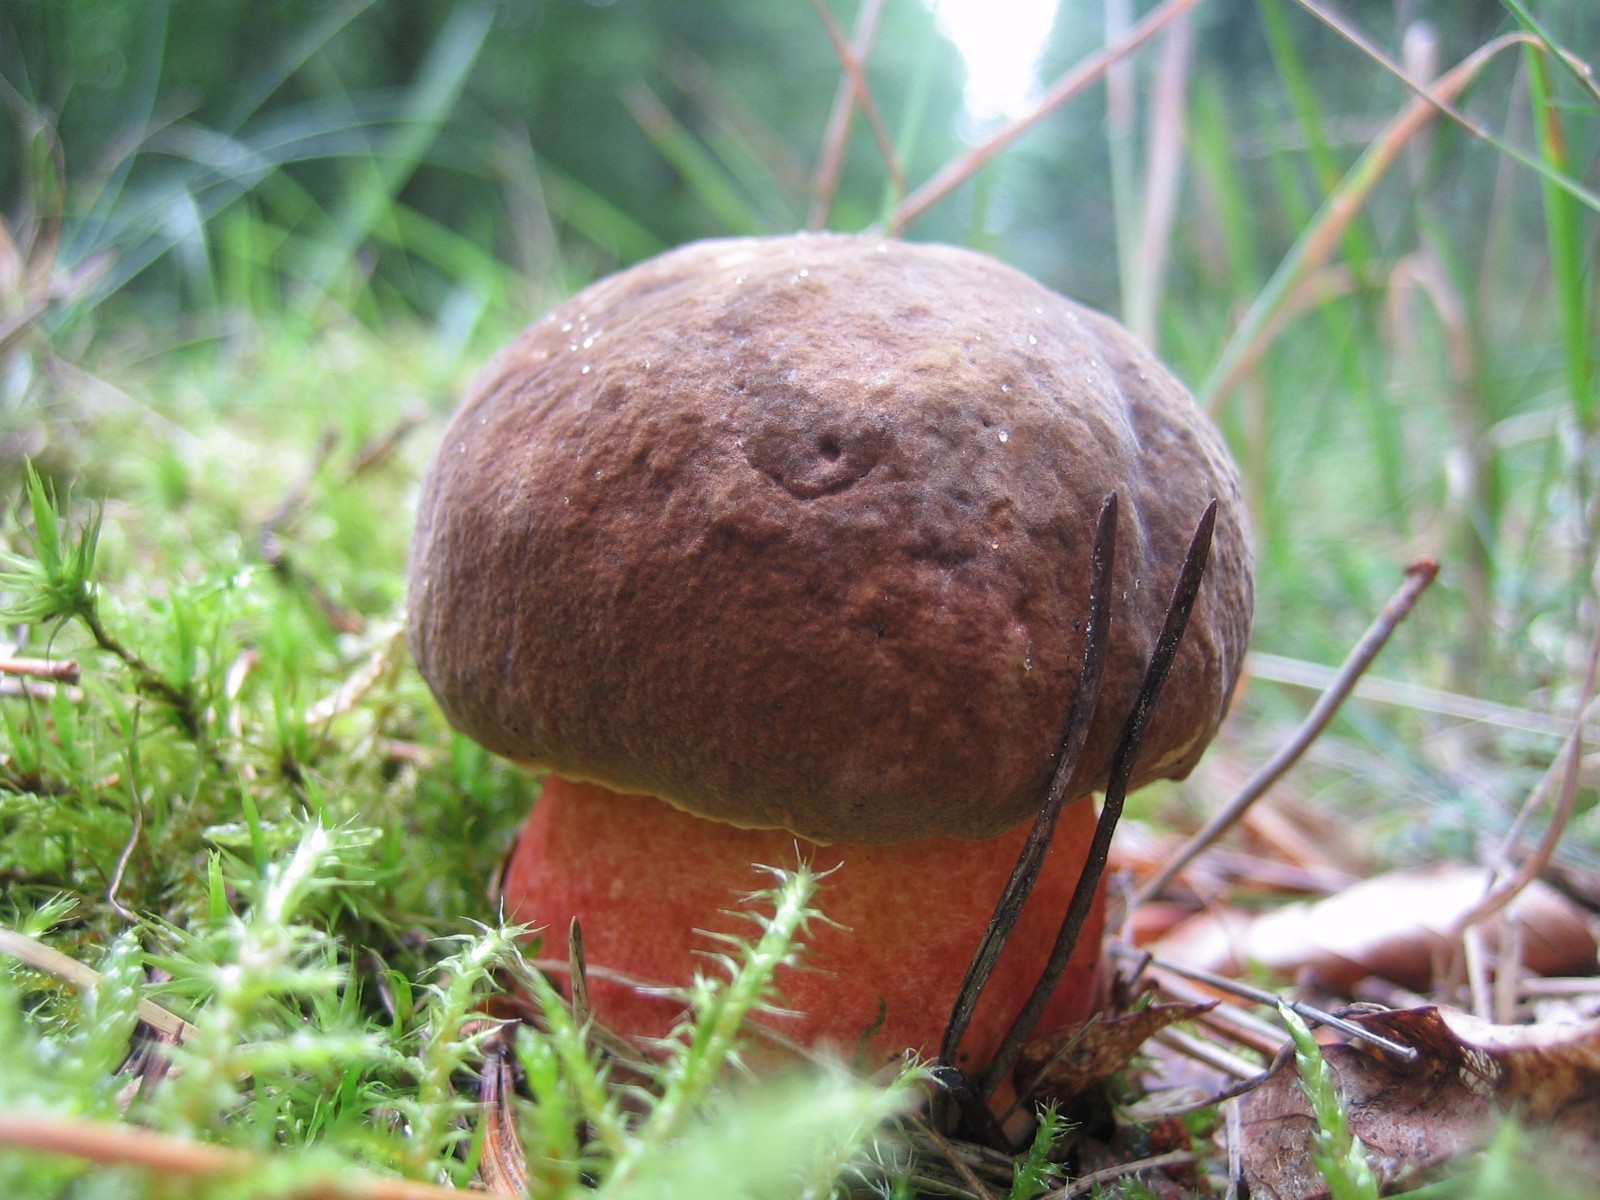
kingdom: Fungi
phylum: Basidiomycota
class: Agaricomycetes
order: Boletales
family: Boletaceae
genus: Neoboletus
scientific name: Neoboletus erythropus
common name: punktstokket indigorørhat
